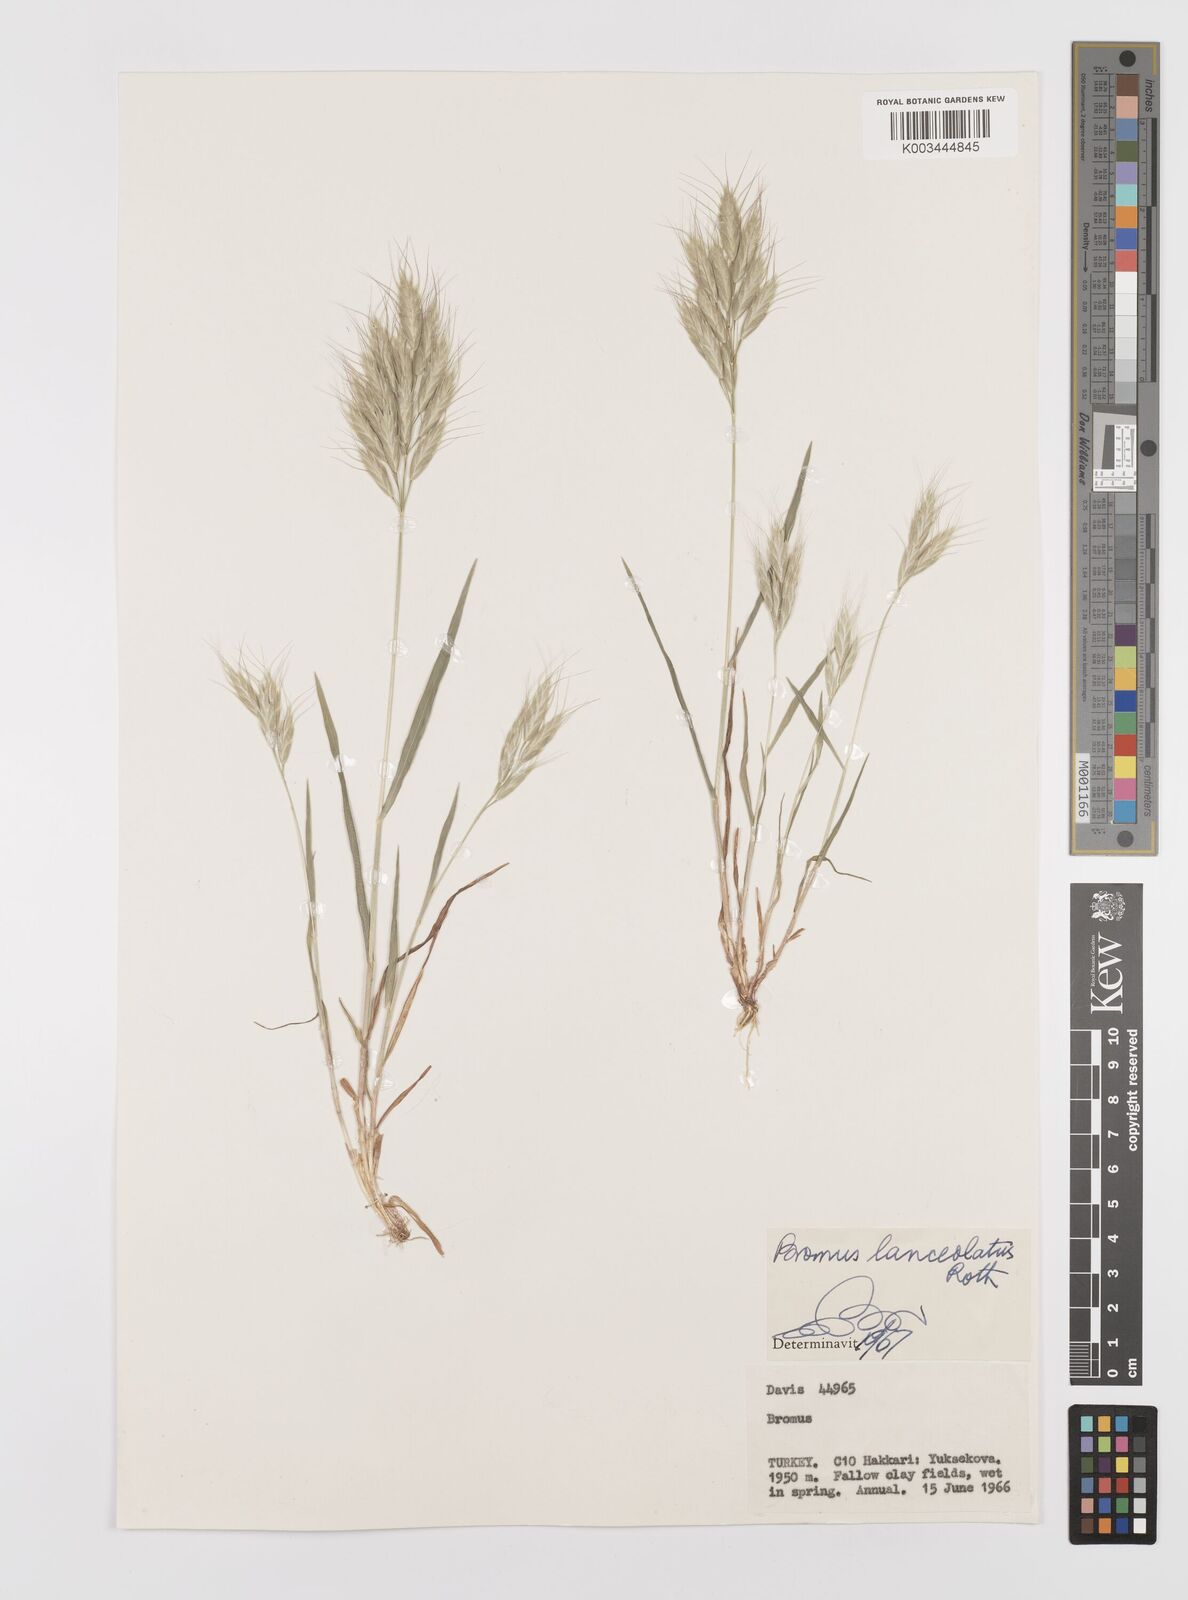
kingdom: Plantae
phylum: Tracheophyta
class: Liliopsida
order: Poales
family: Poaceae
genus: Bromus
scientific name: Bromus lanceolatus
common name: Mediterranean brome
